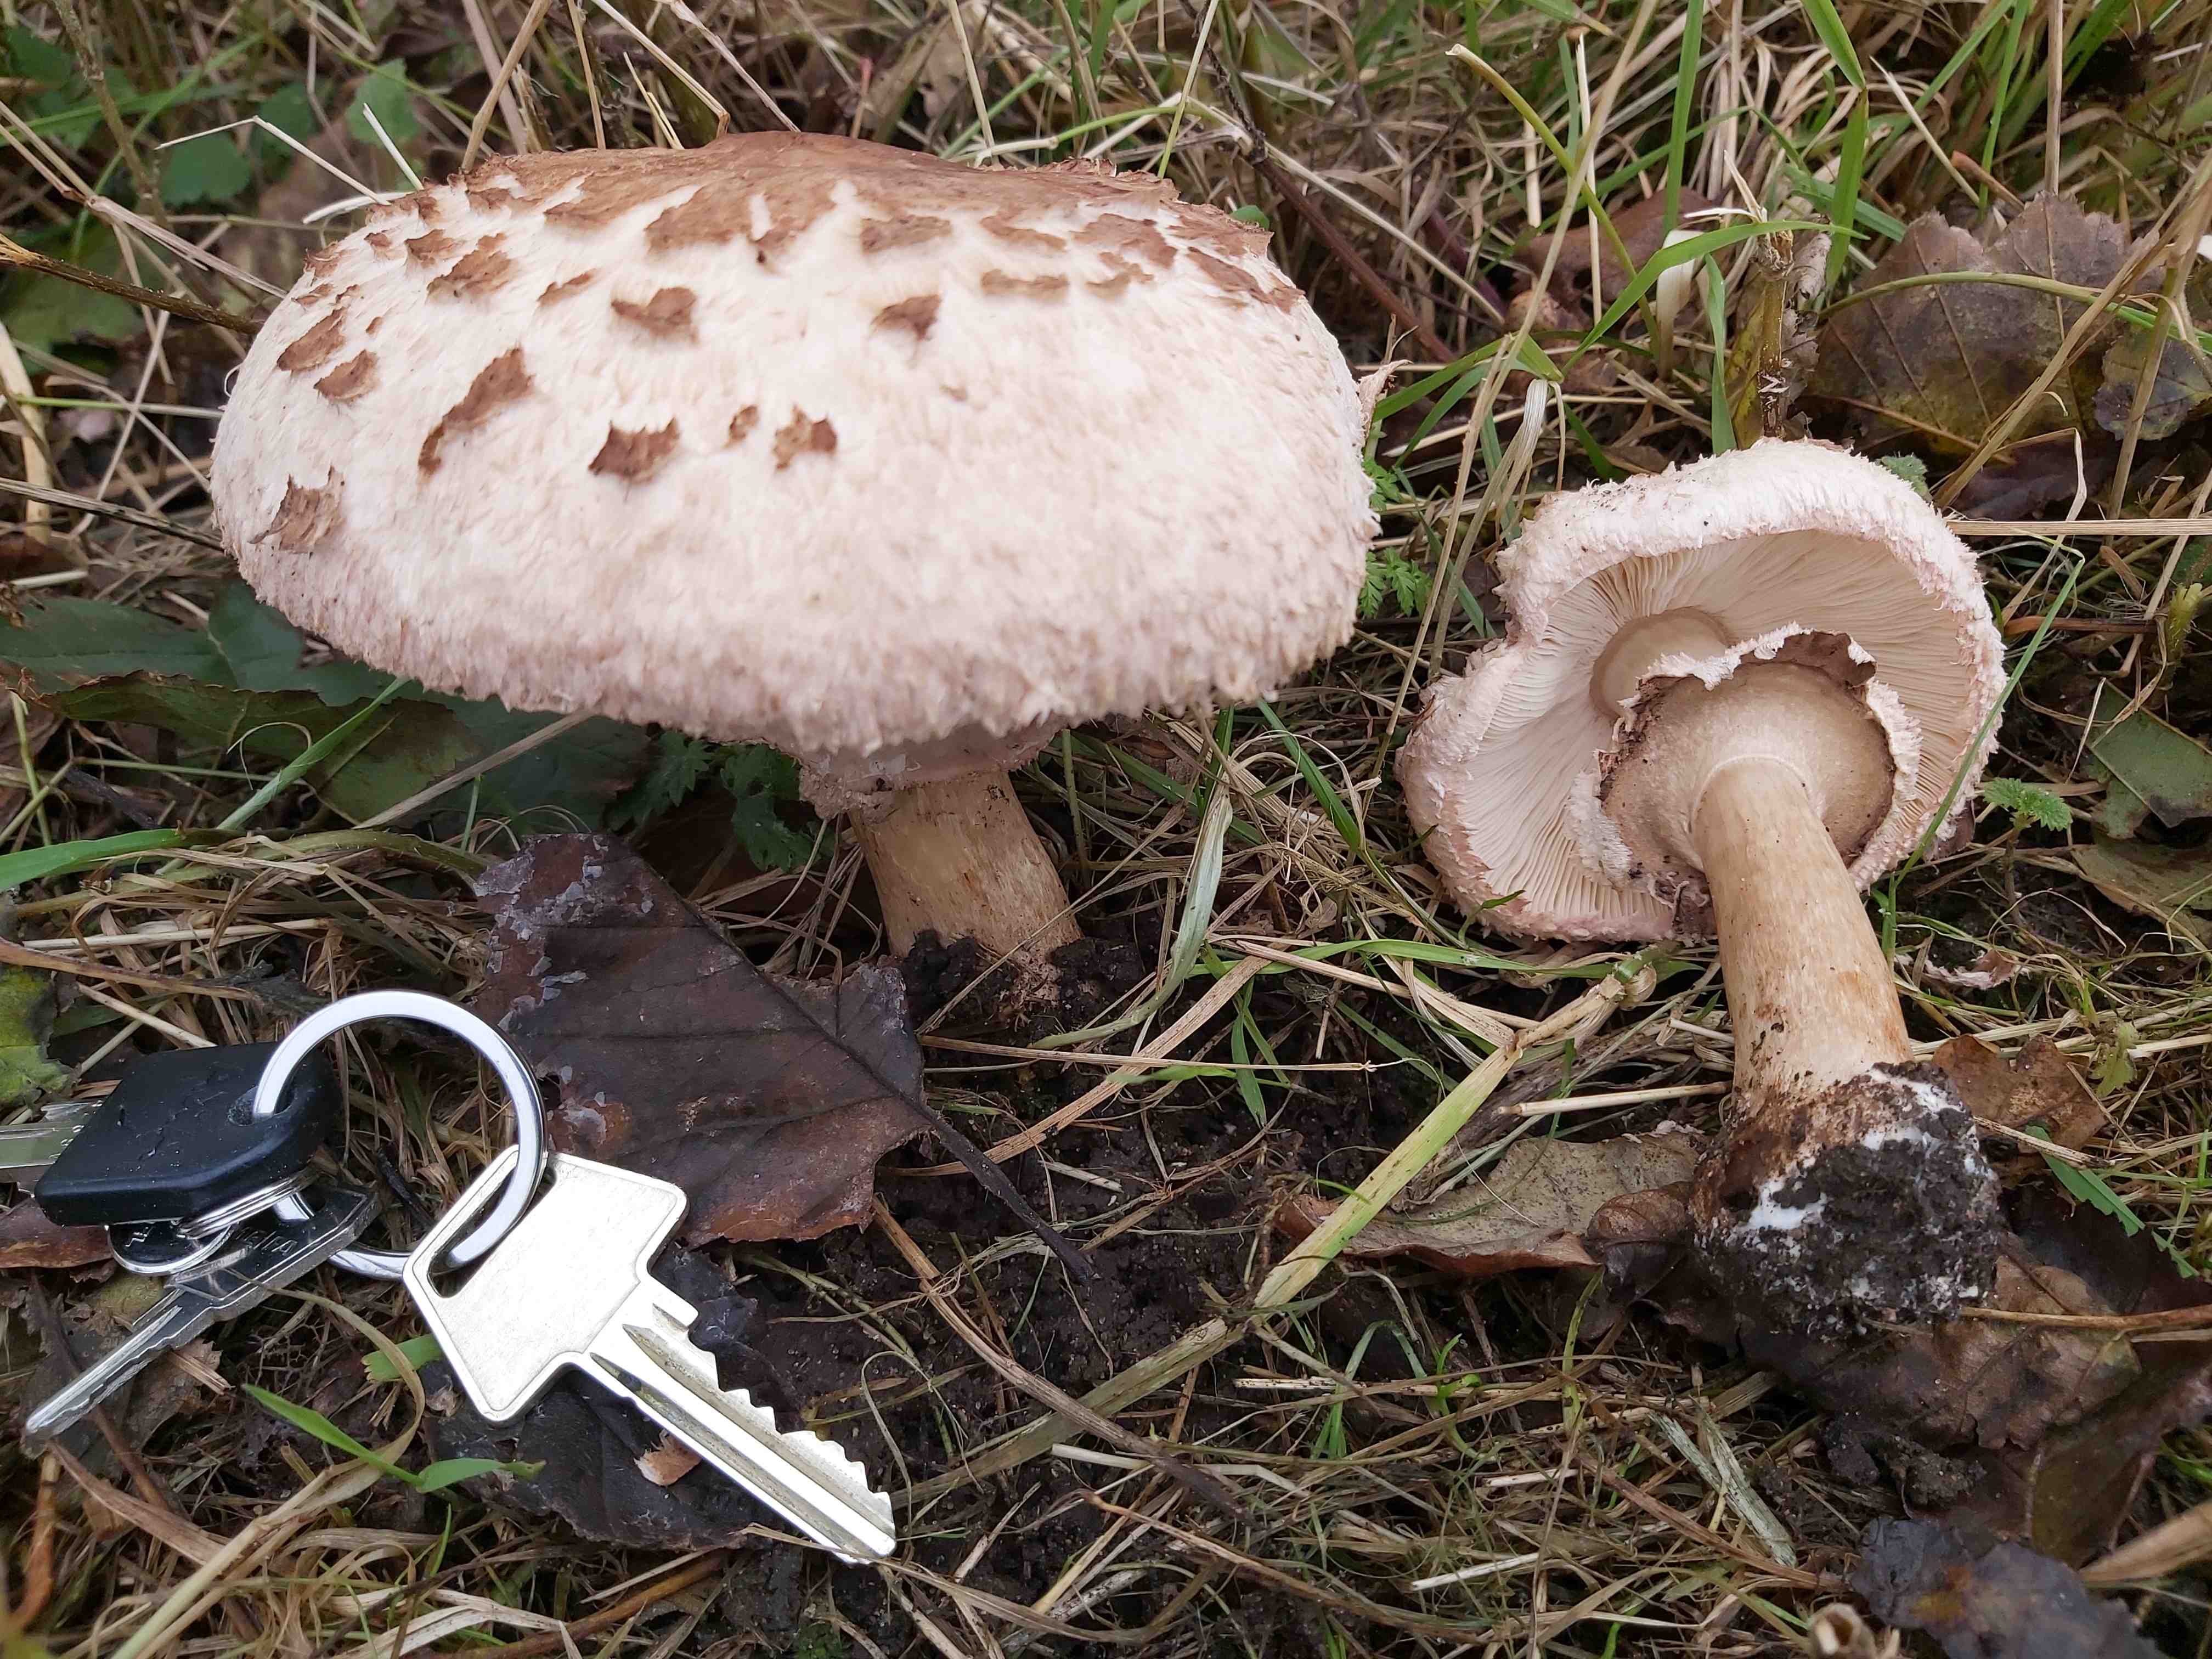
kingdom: Fungi
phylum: Basidiomycota
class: Agaricomycetes
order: Agaricales
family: Agaricaceae
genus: Chlorophyllum
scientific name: Chlorophyllum brunneum
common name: giftig rabarberhat
